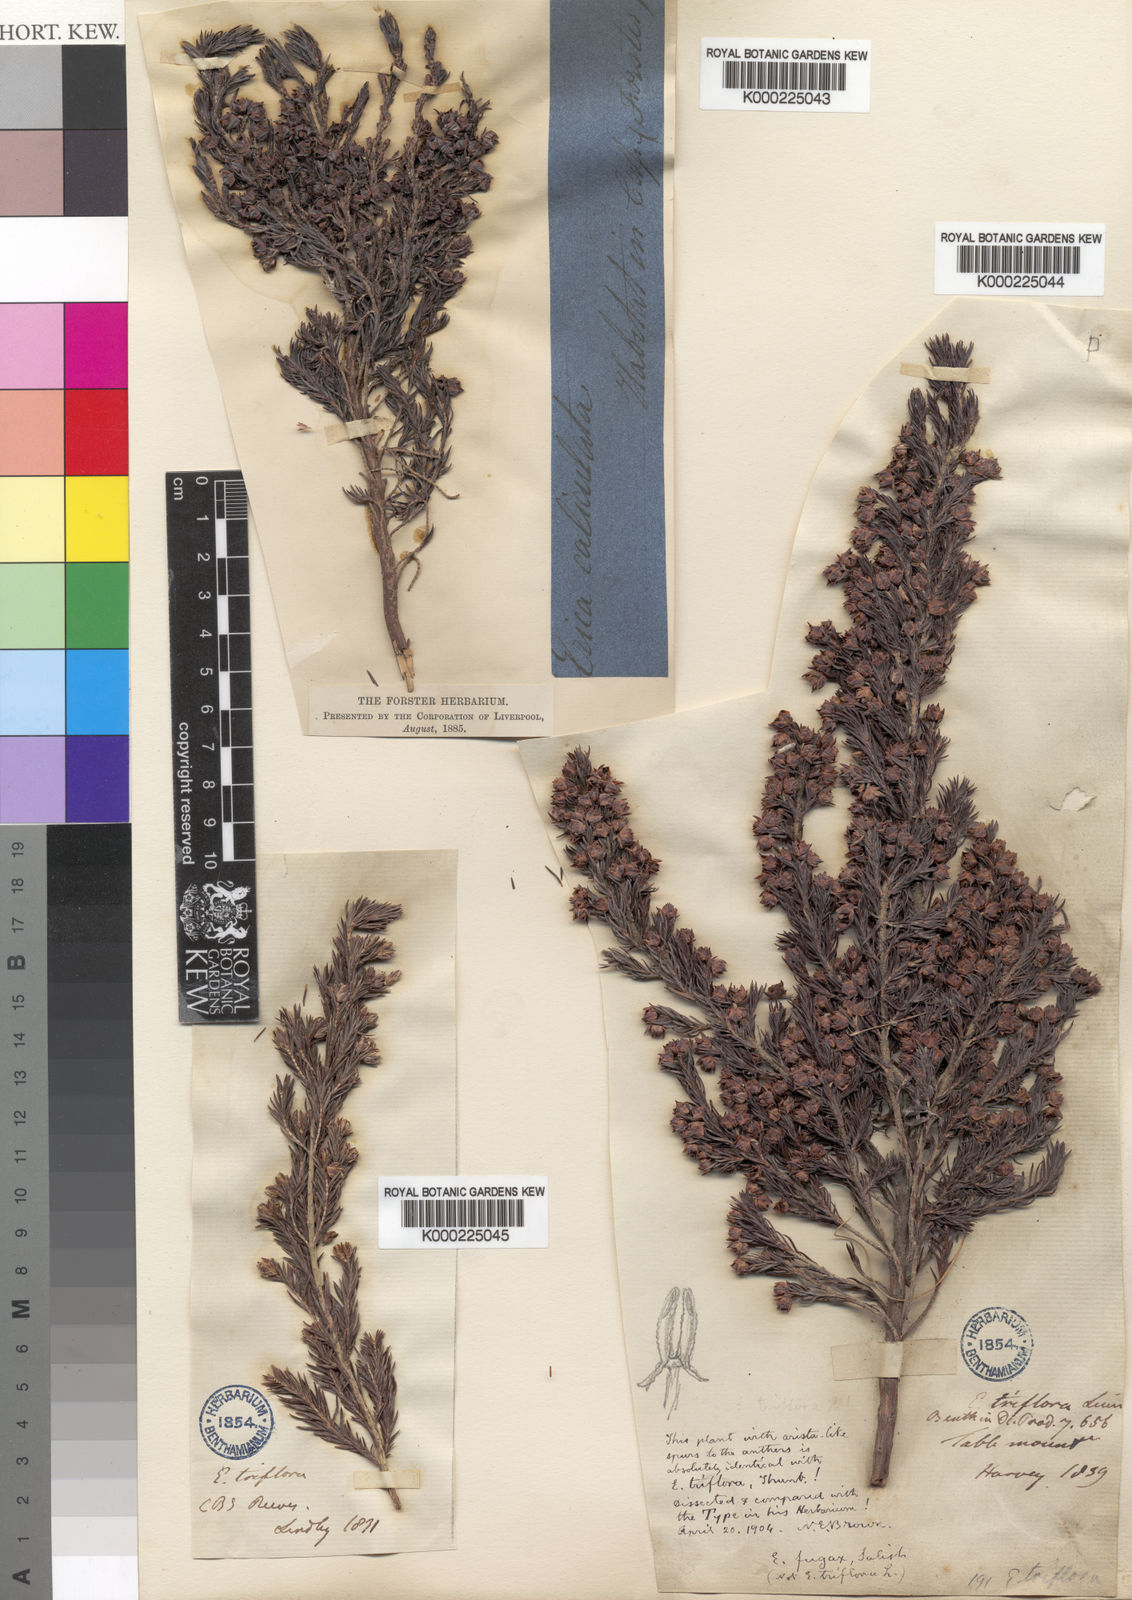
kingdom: Plantae
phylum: Tracheophyta
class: Magnoliopsida
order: Ericales
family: Ericaceae
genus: Erica
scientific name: Erica triflora
